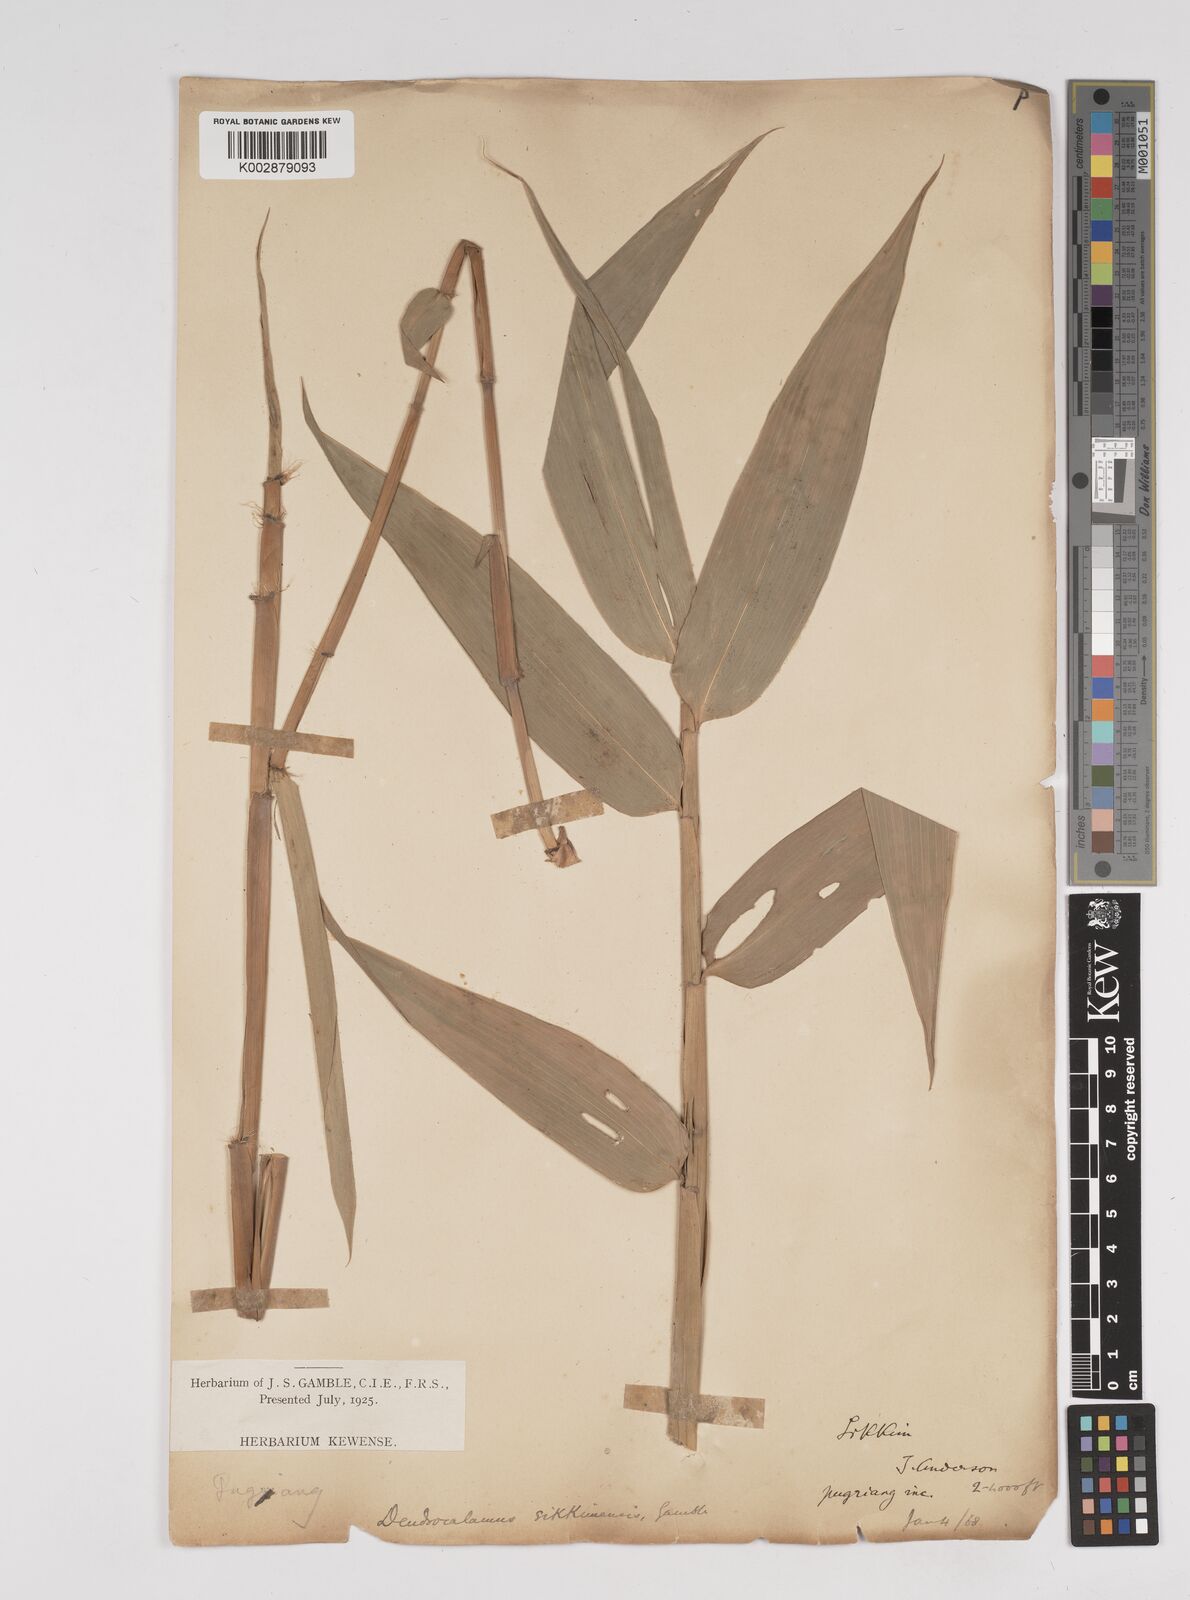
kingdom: Plantae
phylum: Tracheophyta
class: Liliopsida
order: Poales
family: Poaceae
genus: Dendrocalamus
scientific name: Dendrocalamus sikkimensis
